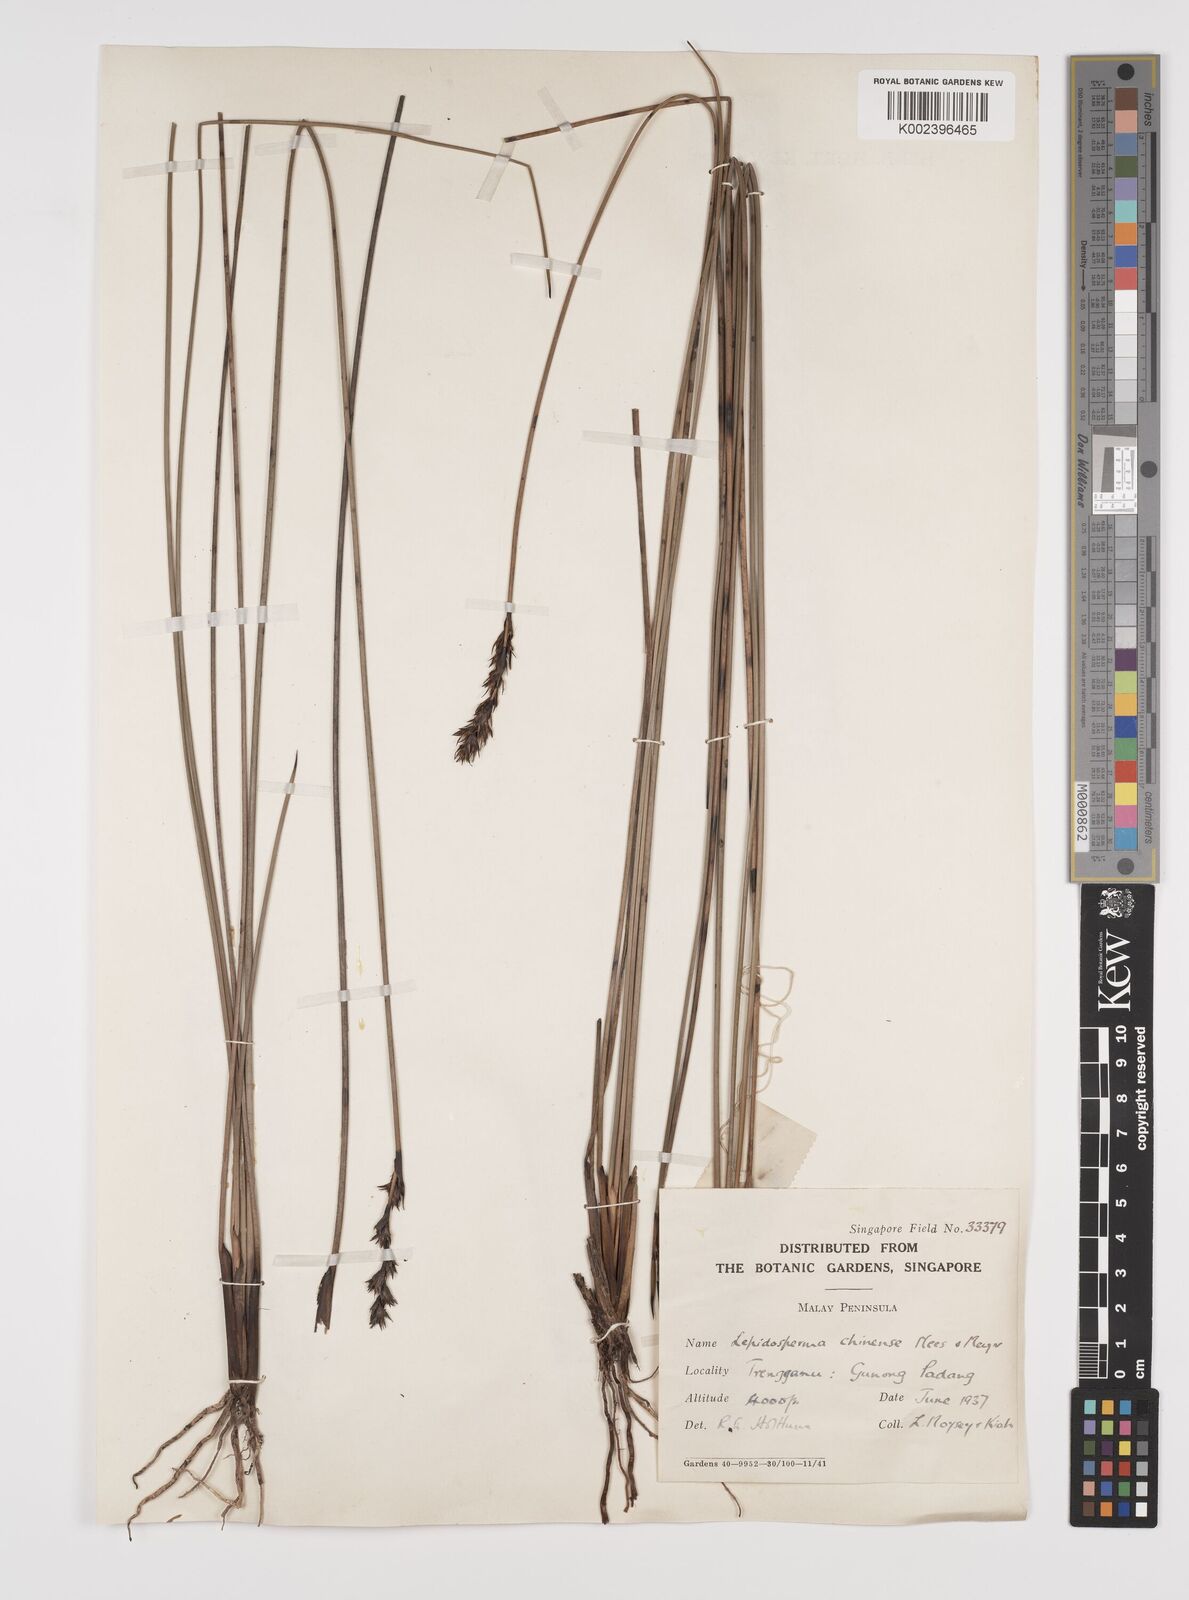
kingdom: Plantae
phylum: Tracheophyta
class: Liliopsida
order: Poales
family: Cyperaceae
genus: Lepidosperma
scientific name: Lepidosperma chinense
